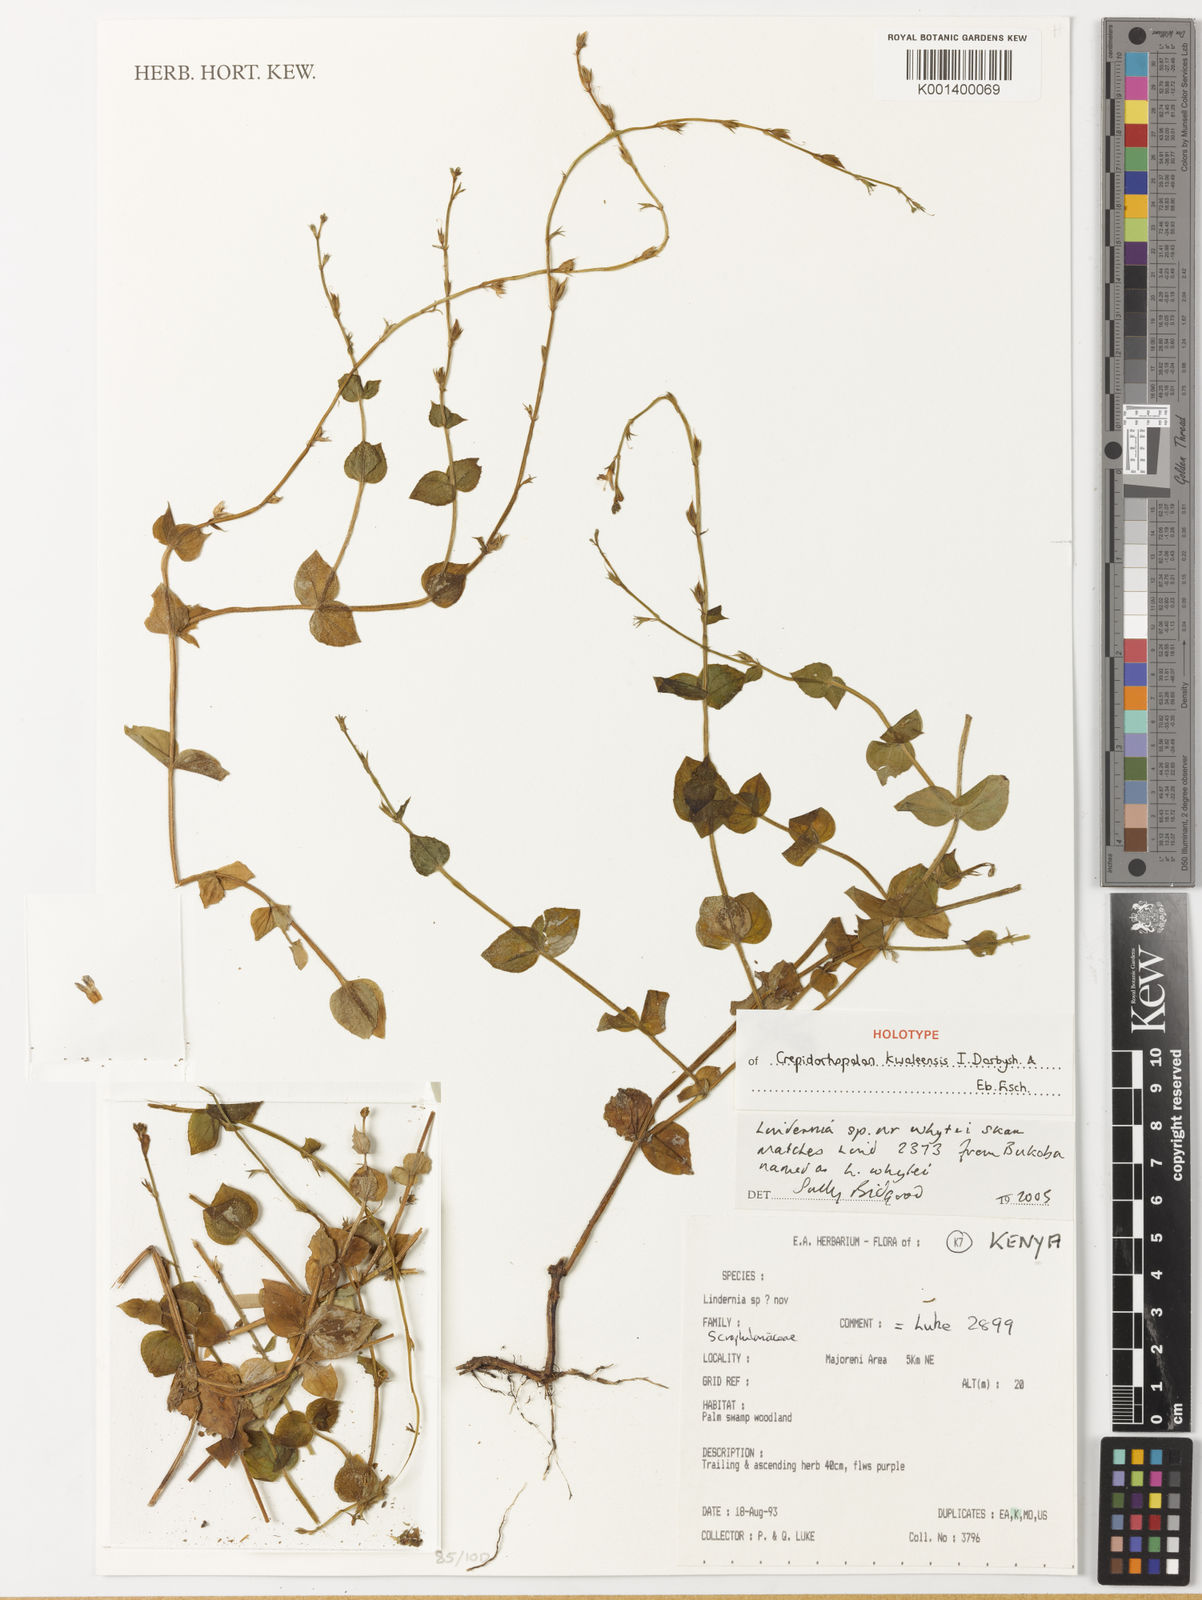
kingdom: Plantae
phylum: Tracheophyta
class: Magnoliopsida
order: Lamiales
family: Linderniaceae
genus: Crepidorhopalon
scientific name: Crepidorhopalon
